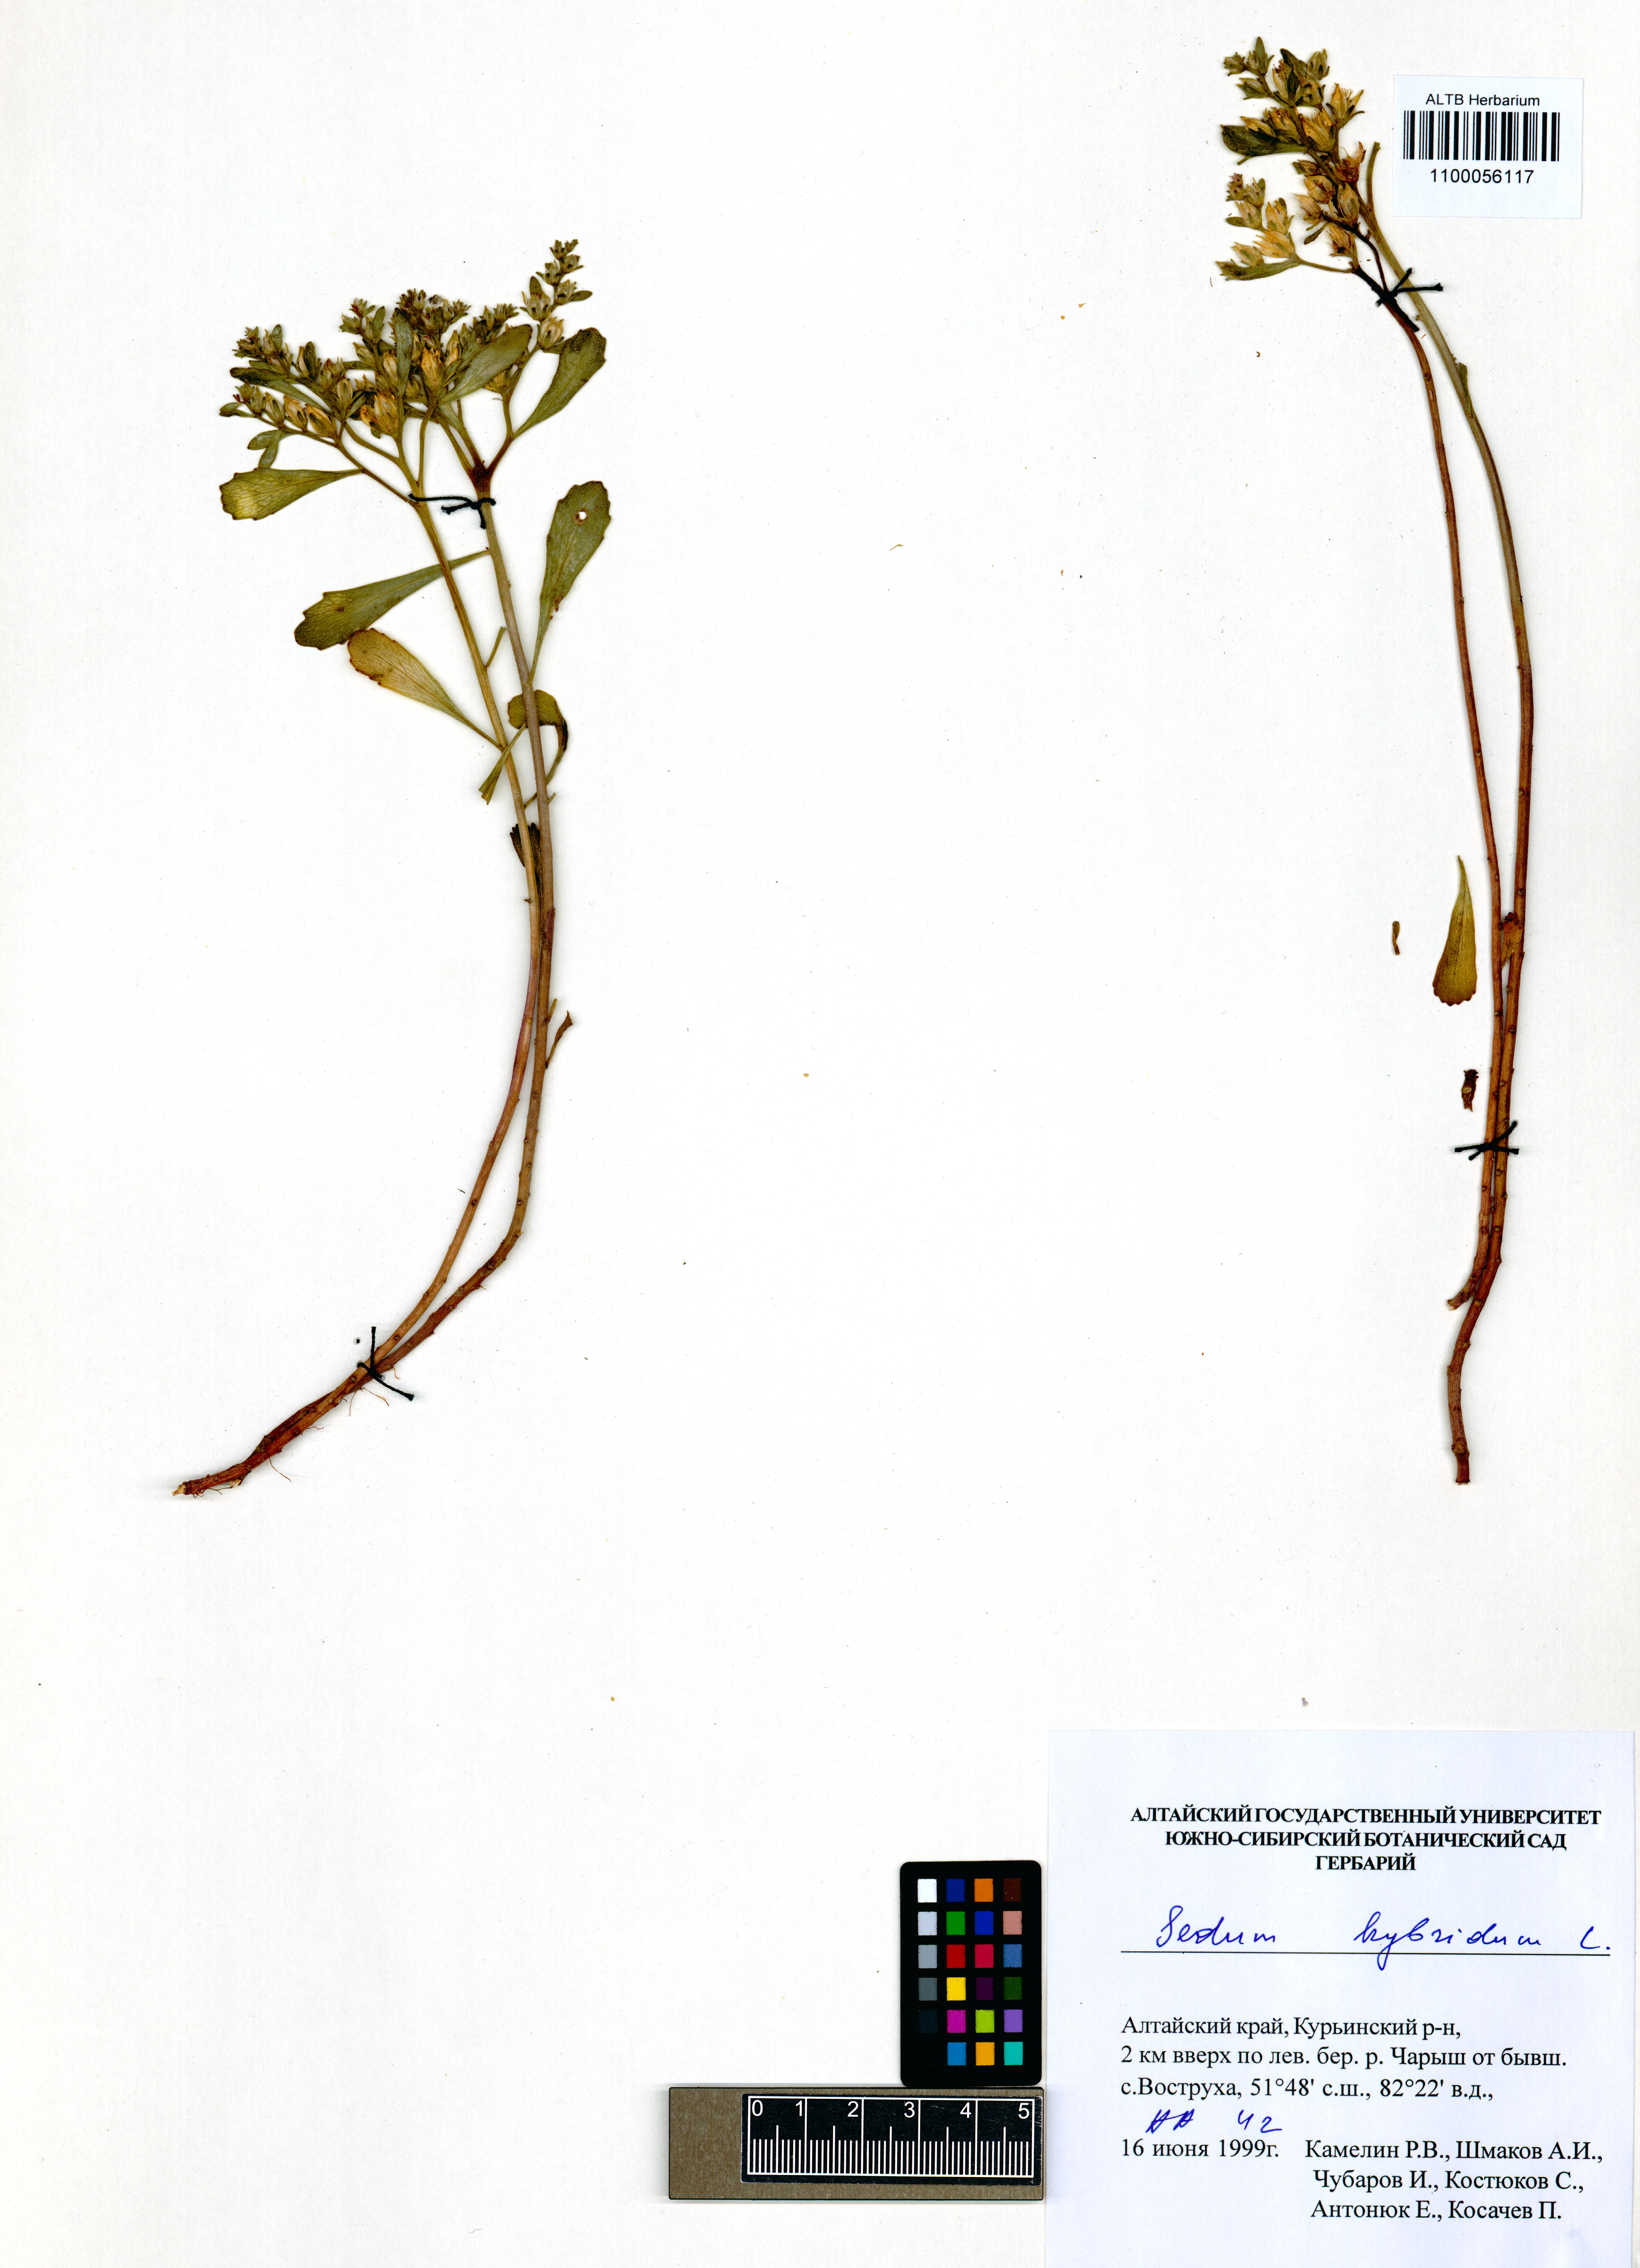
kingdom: Plantae
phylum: Tracheophyta
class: Magnoliopsida
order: Saxifragales
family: Crassulaceae
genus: Phedimus
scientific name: Phedimus hybridus
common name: Hybrid stonecrop
